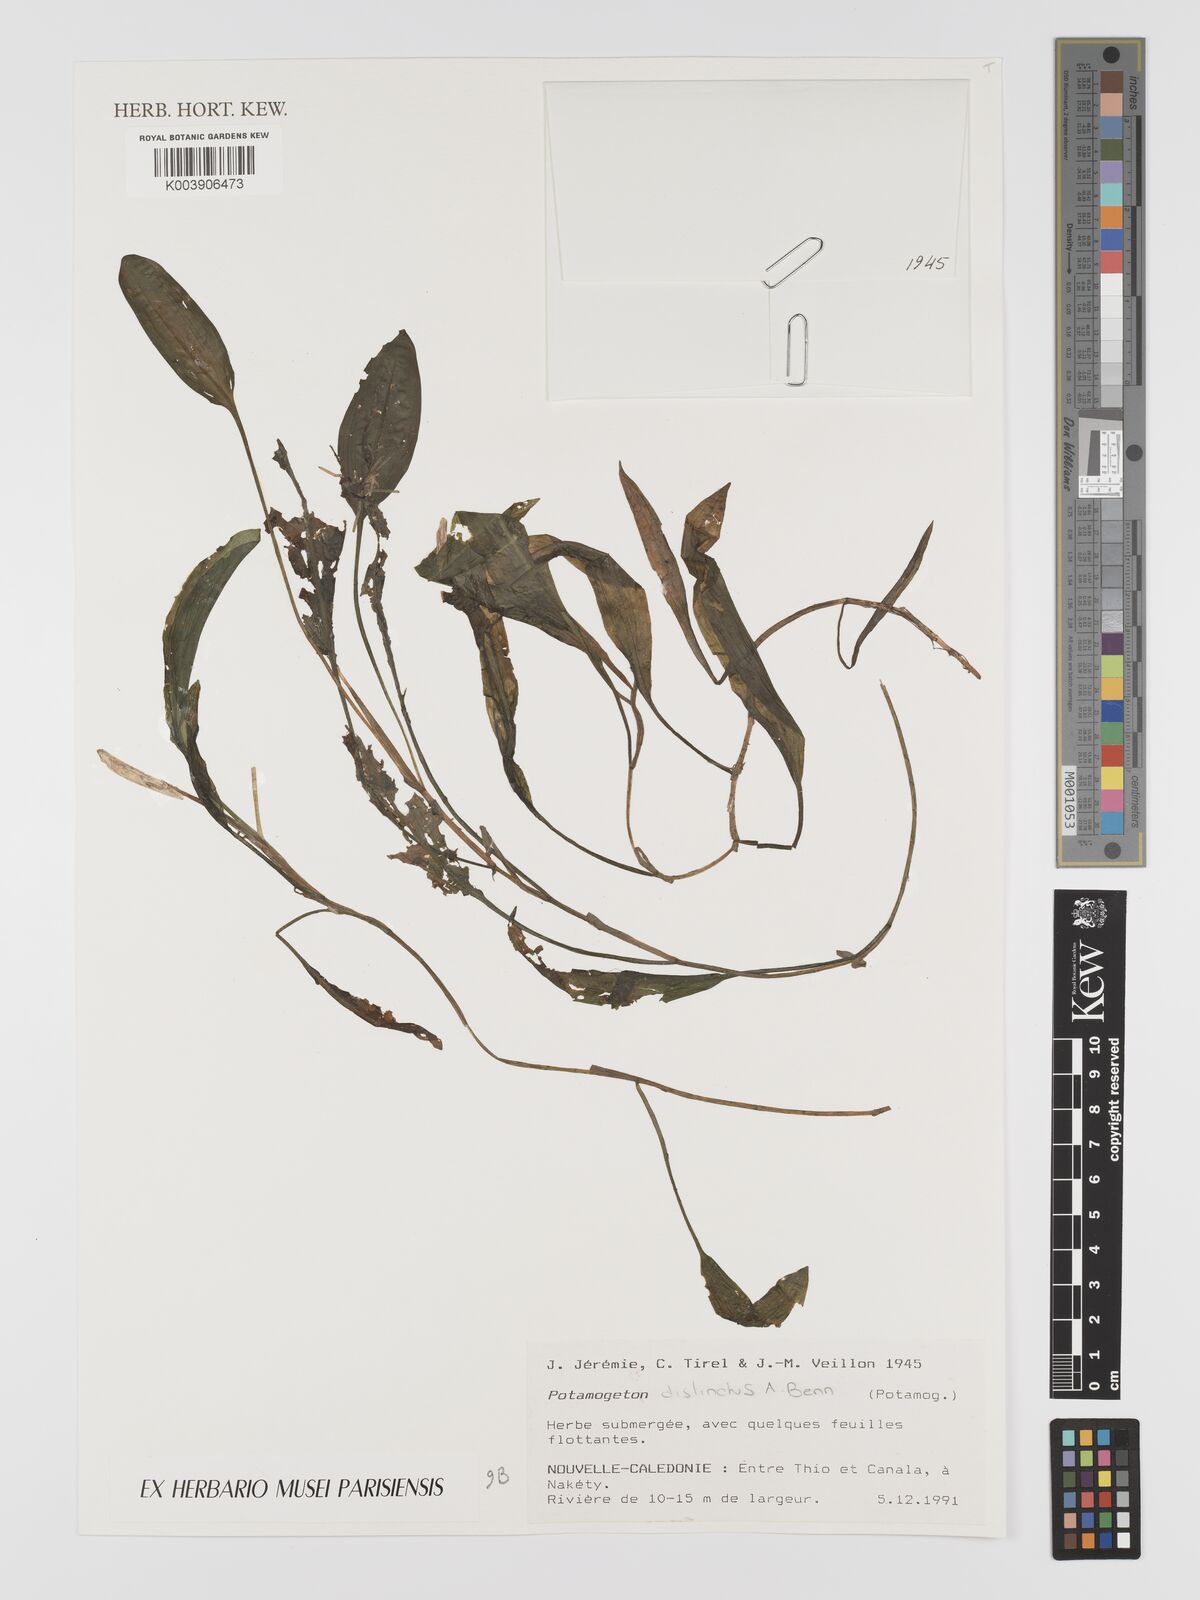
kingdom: Plantae
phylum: Tracheophyta
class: Liliopsida
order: Alismatales
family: Potamogetonaceae
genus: Potamogeton
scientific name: Potamogeton distinctus
